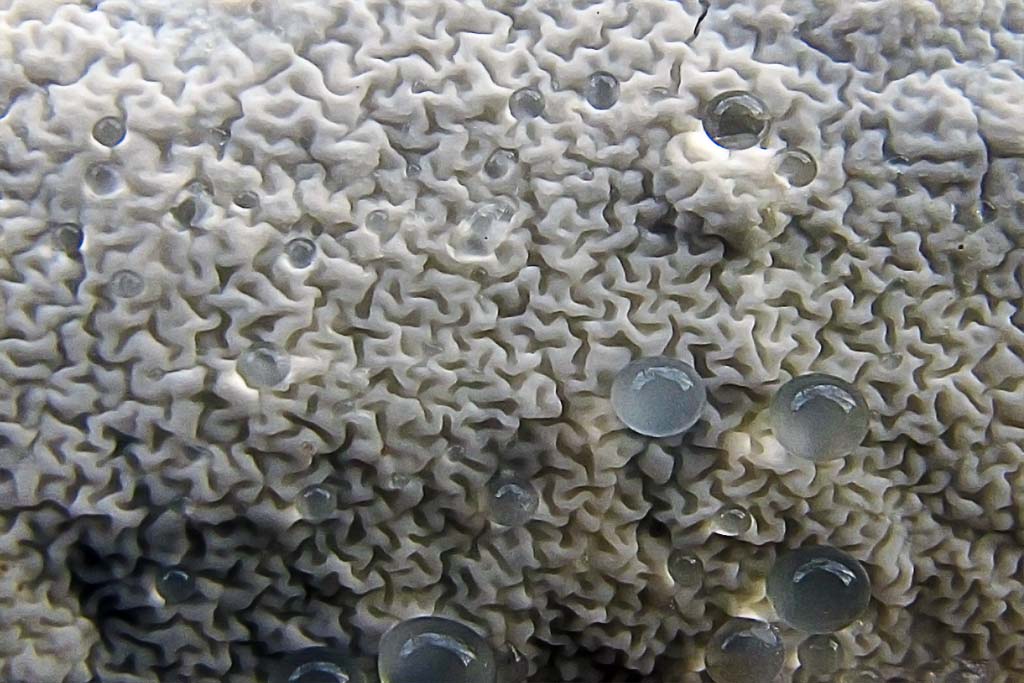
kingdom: Fungi
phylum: Basidiomycota
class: Agaricomycetes
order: Polyporales
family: Irpicaceae
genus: Byssomerulius
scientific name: Byssomerulius corium
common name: læder-åresvamp
